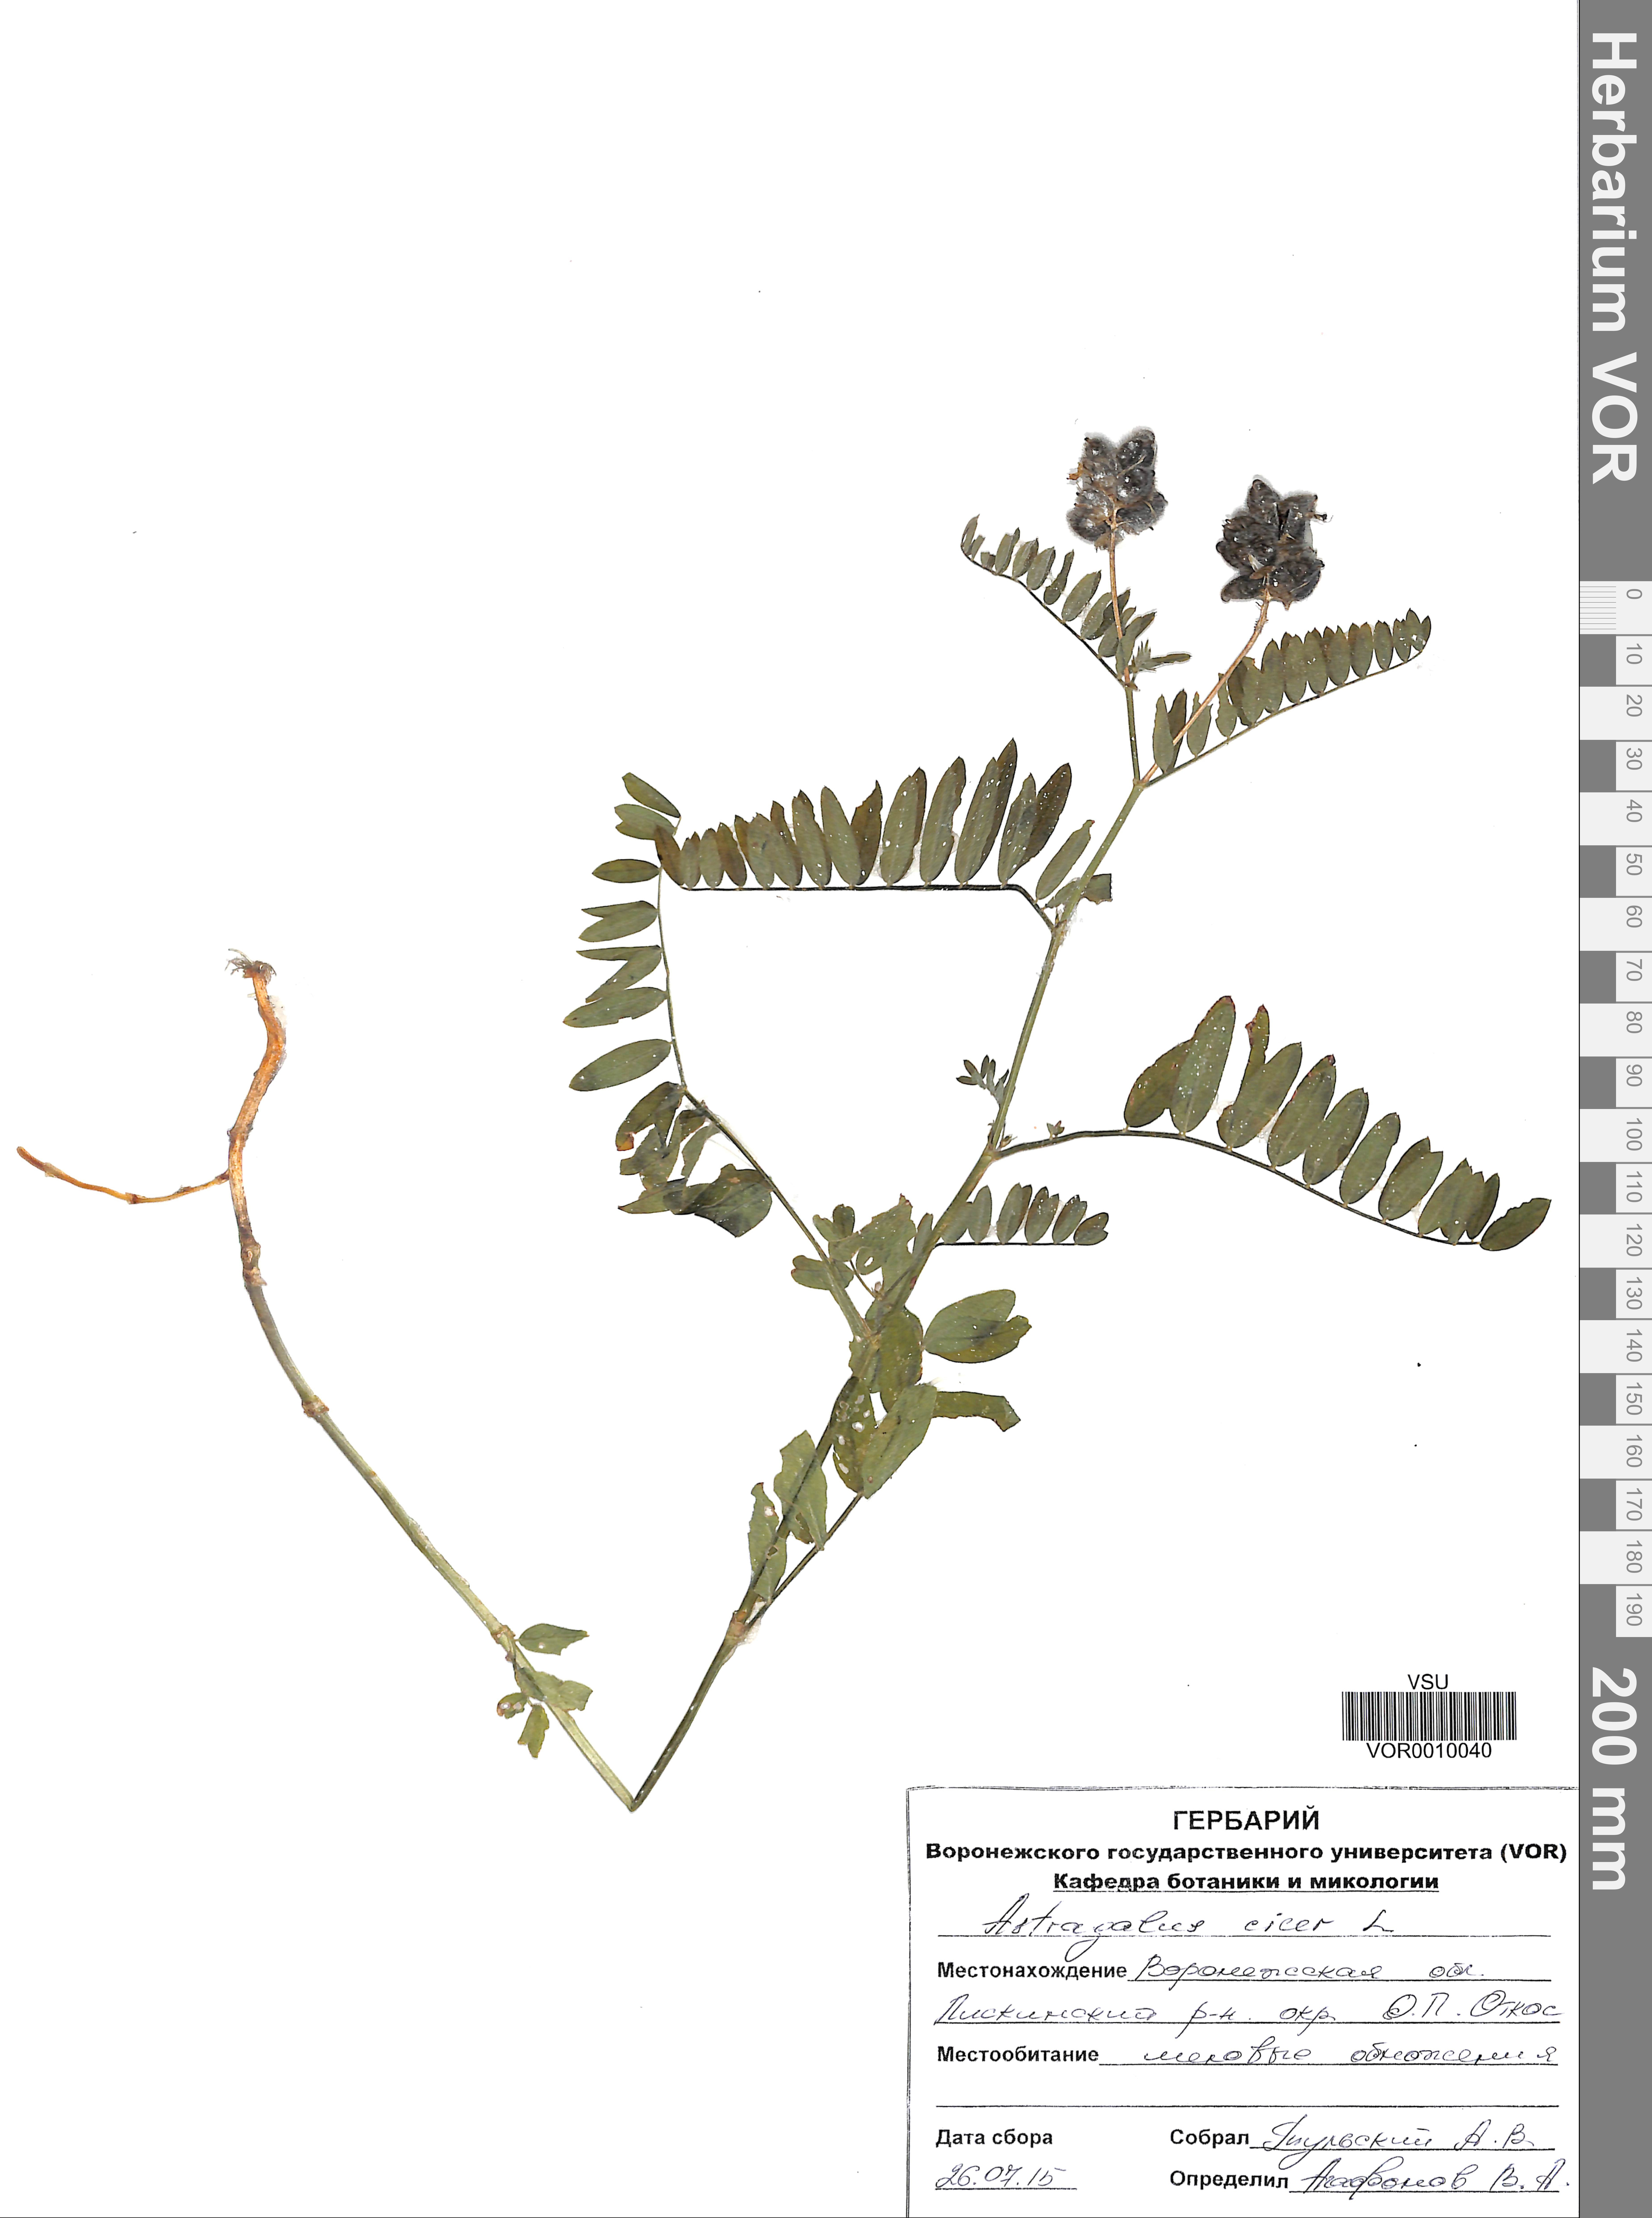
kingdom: Plantae
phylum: Tracheophyta
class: Magnoliopsida
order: Fabales
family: Fabaceae
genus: Astragalus
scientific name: Astragalus cicer
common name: Chick-pea milk-vetch
